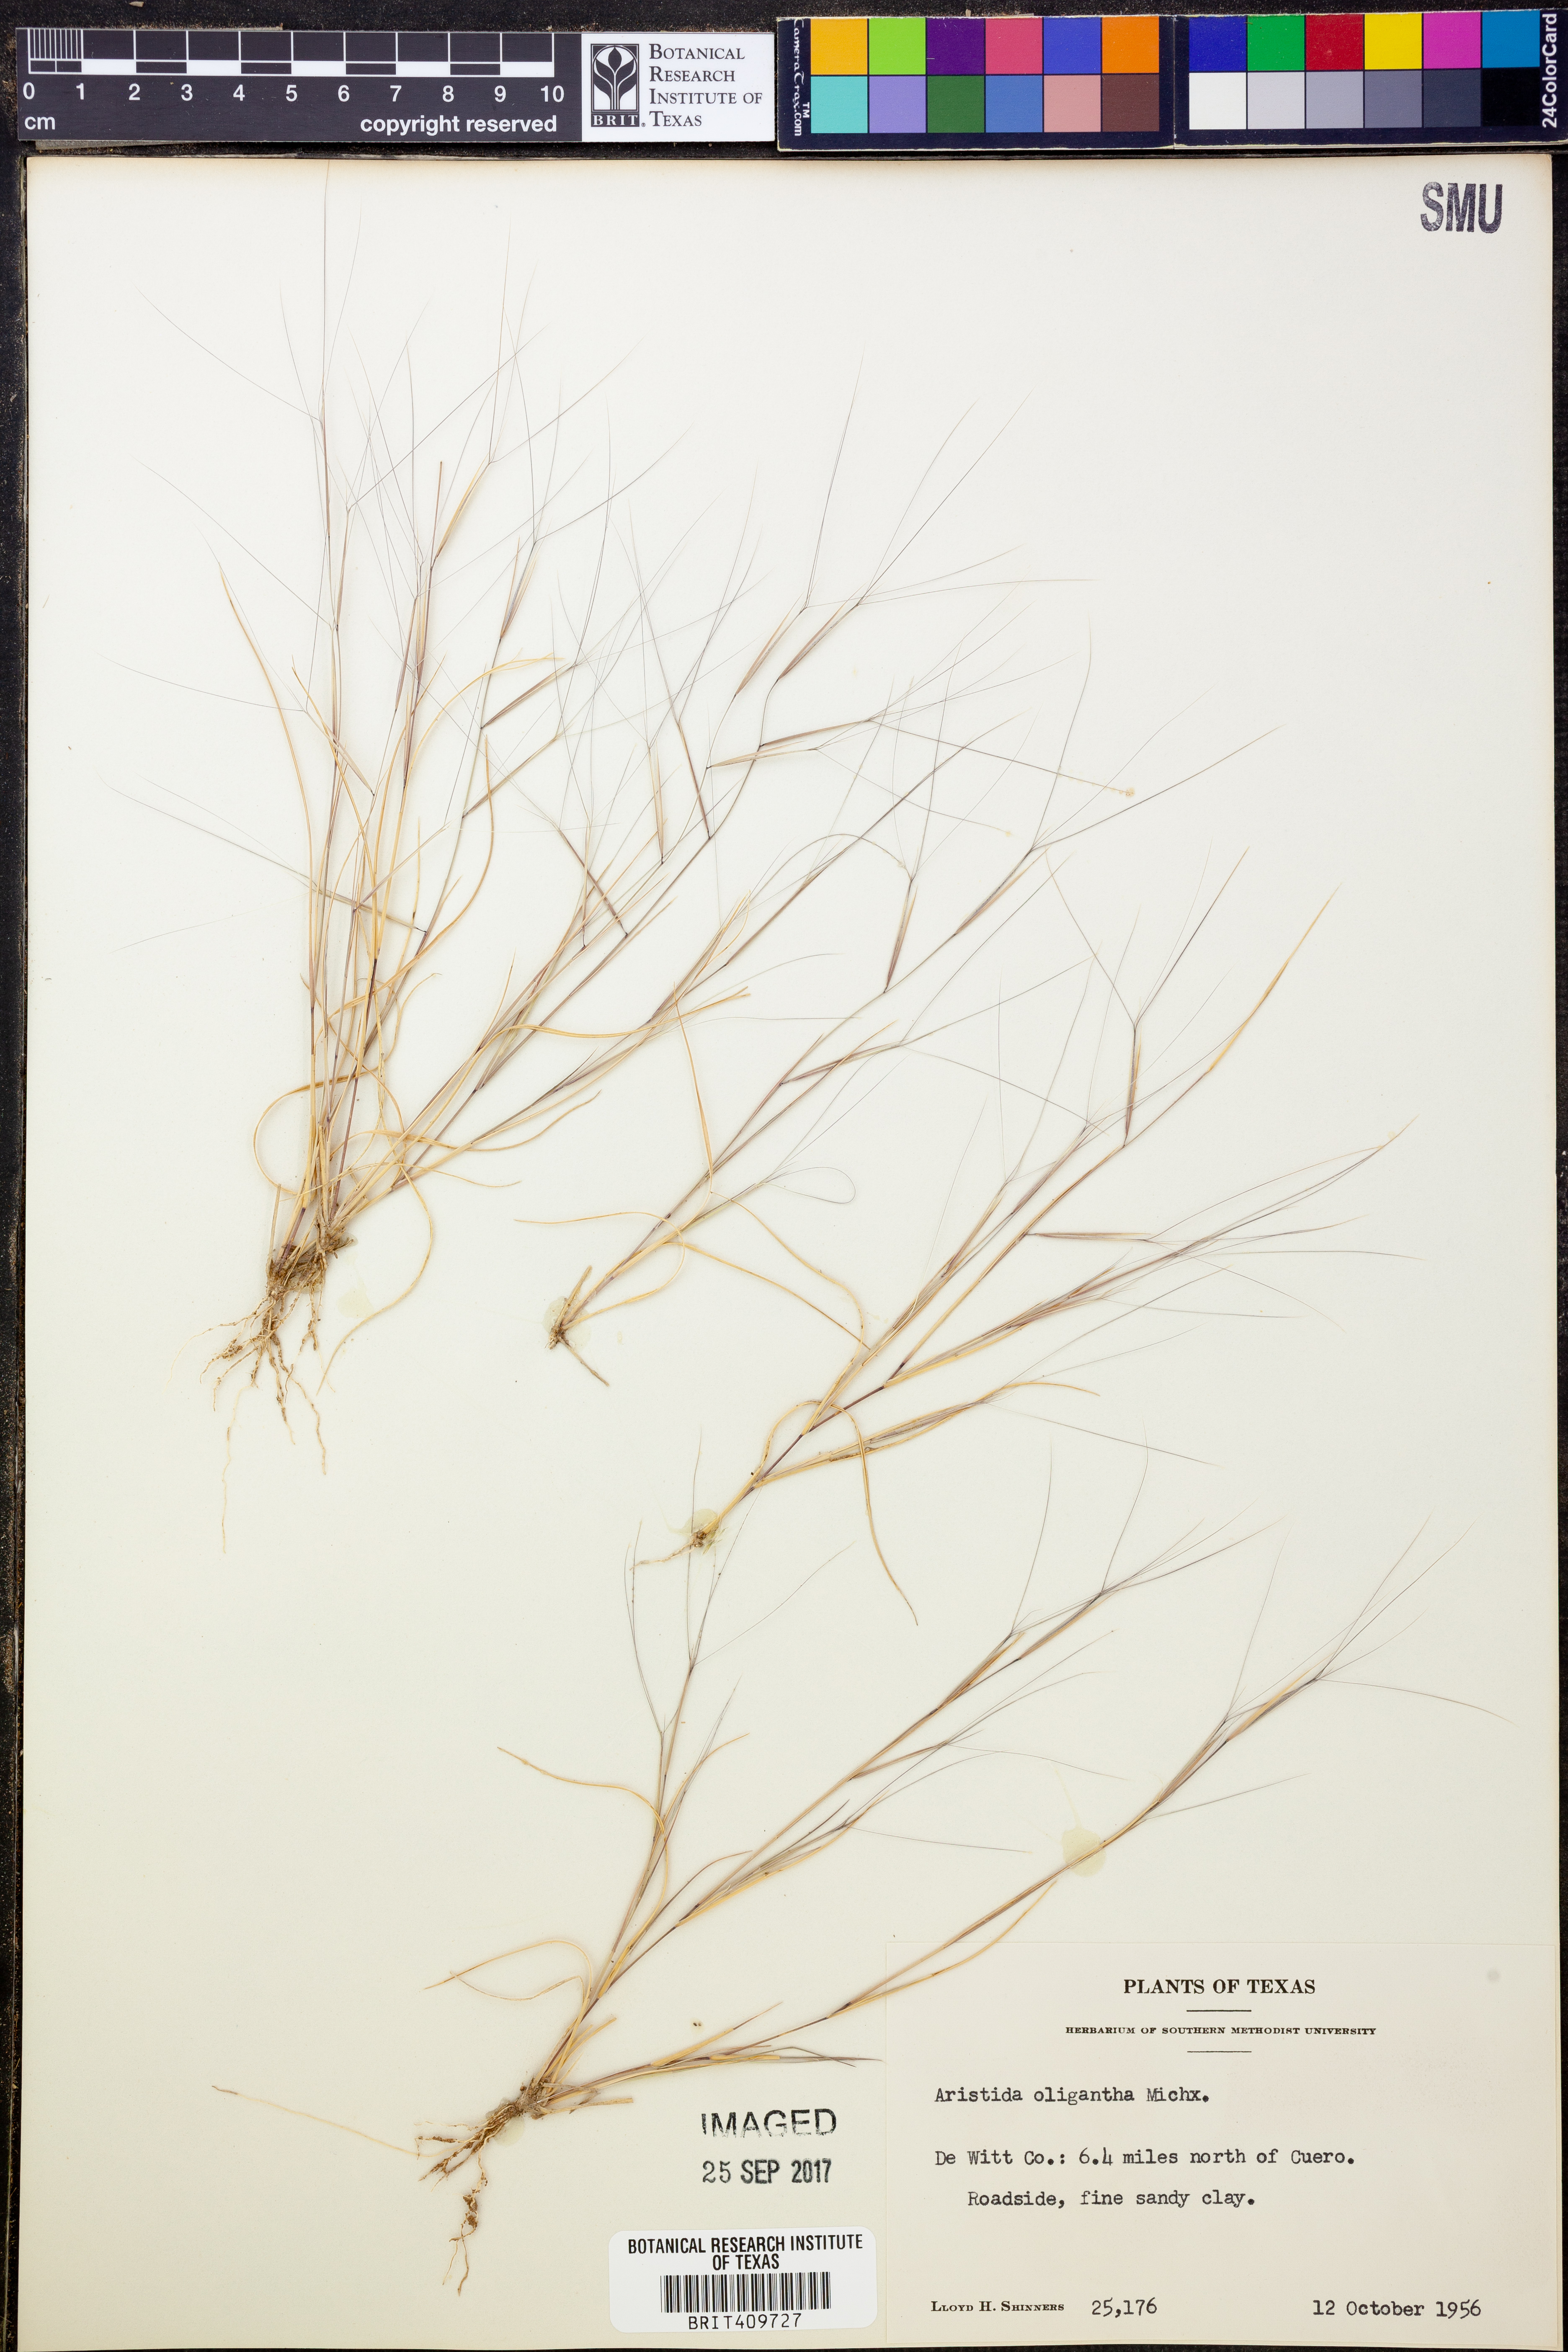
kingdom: Plantae
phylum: Tracheophyta
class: Liliopsida
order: Poales
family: Poaceae
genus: Aristida
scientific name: Aristida oligantha
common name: Few-flowered aristida
